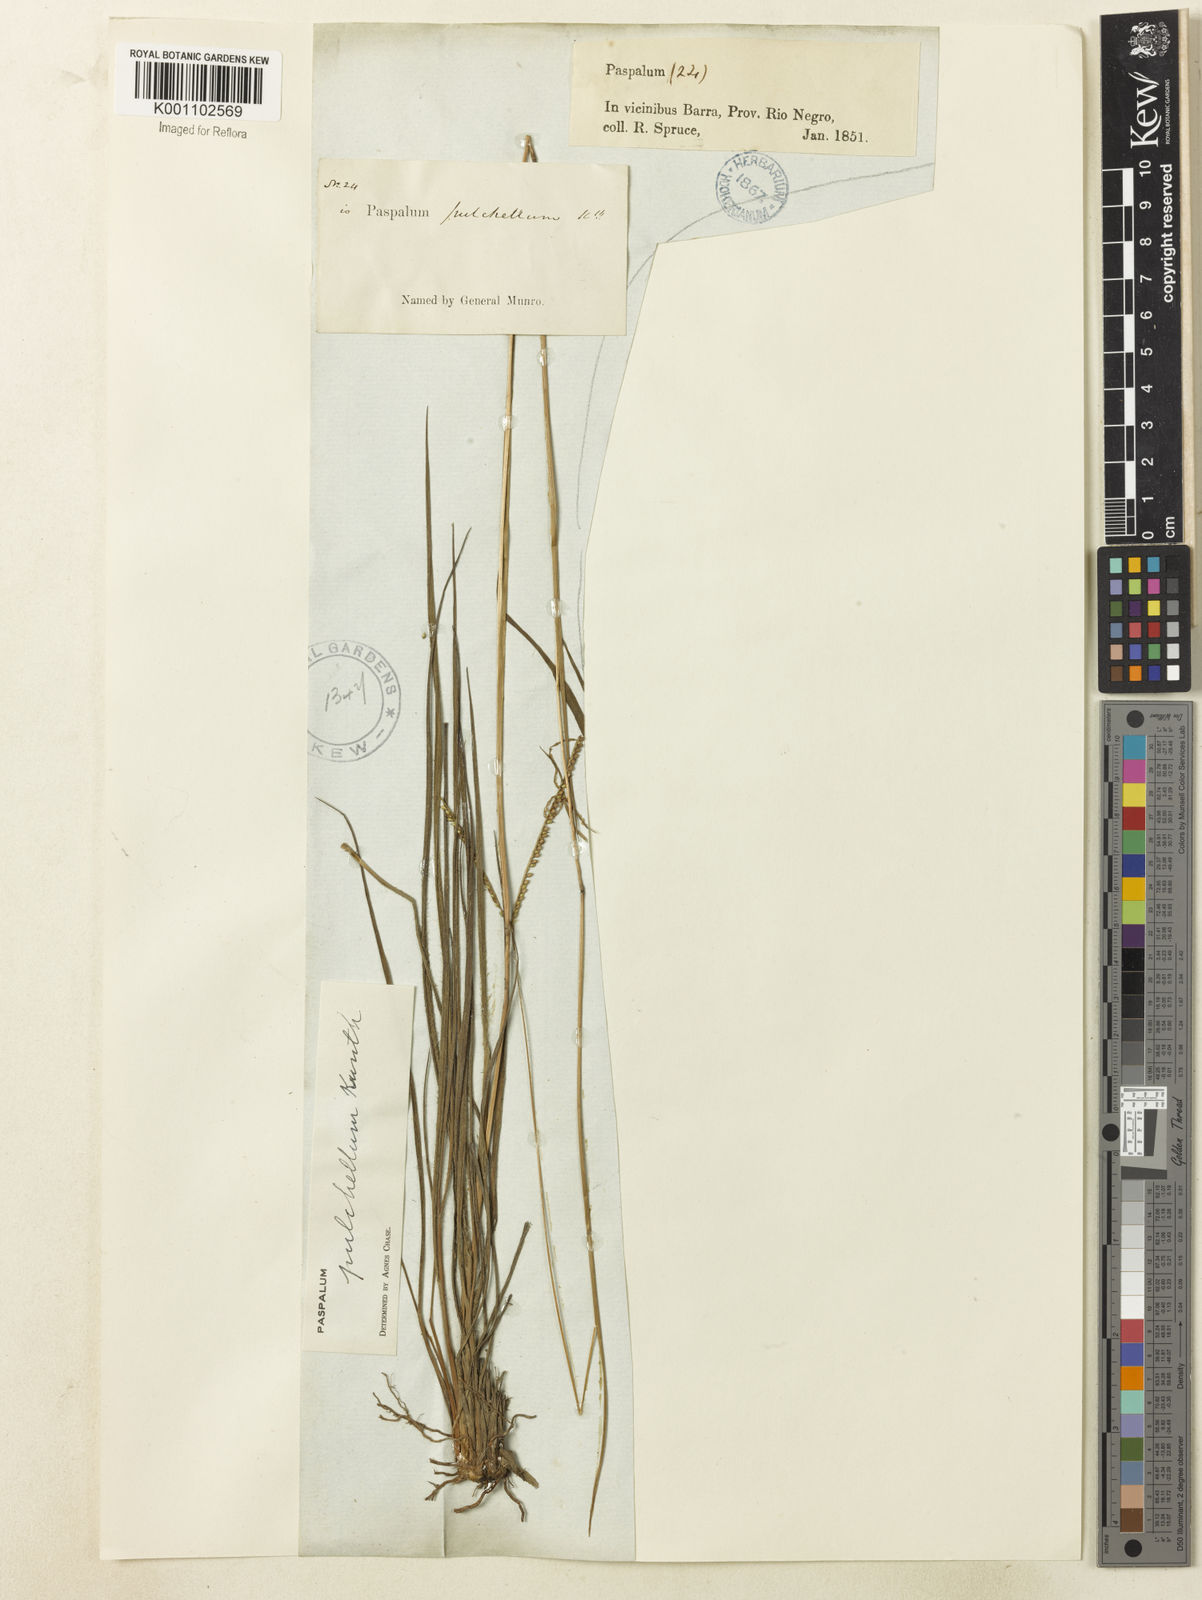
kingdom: Plantae
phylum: Tracheophyta
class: Liliopsida
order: Poales
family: Poaceae
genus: Paspalum
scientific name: Paspalum pulchellum
